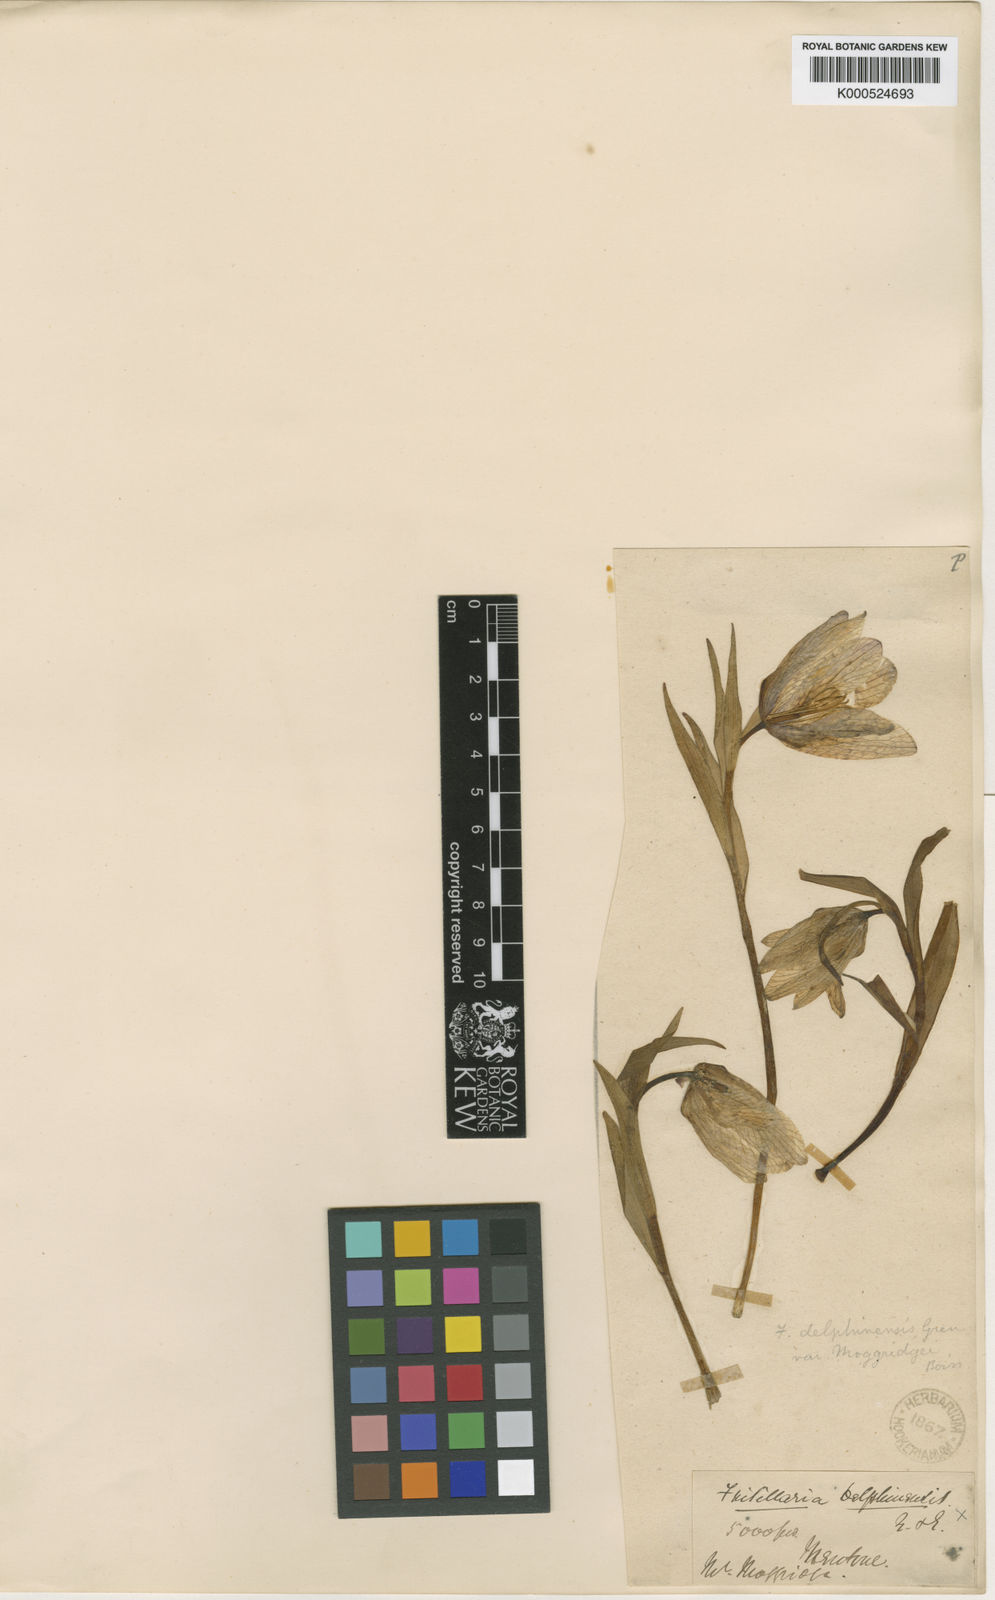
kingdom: Plantae
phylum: Tracheophyta
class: Liliopsida
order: Liliales
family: Liliaceae
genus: Fritillaria
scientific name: Fritillaria tubaeformis
